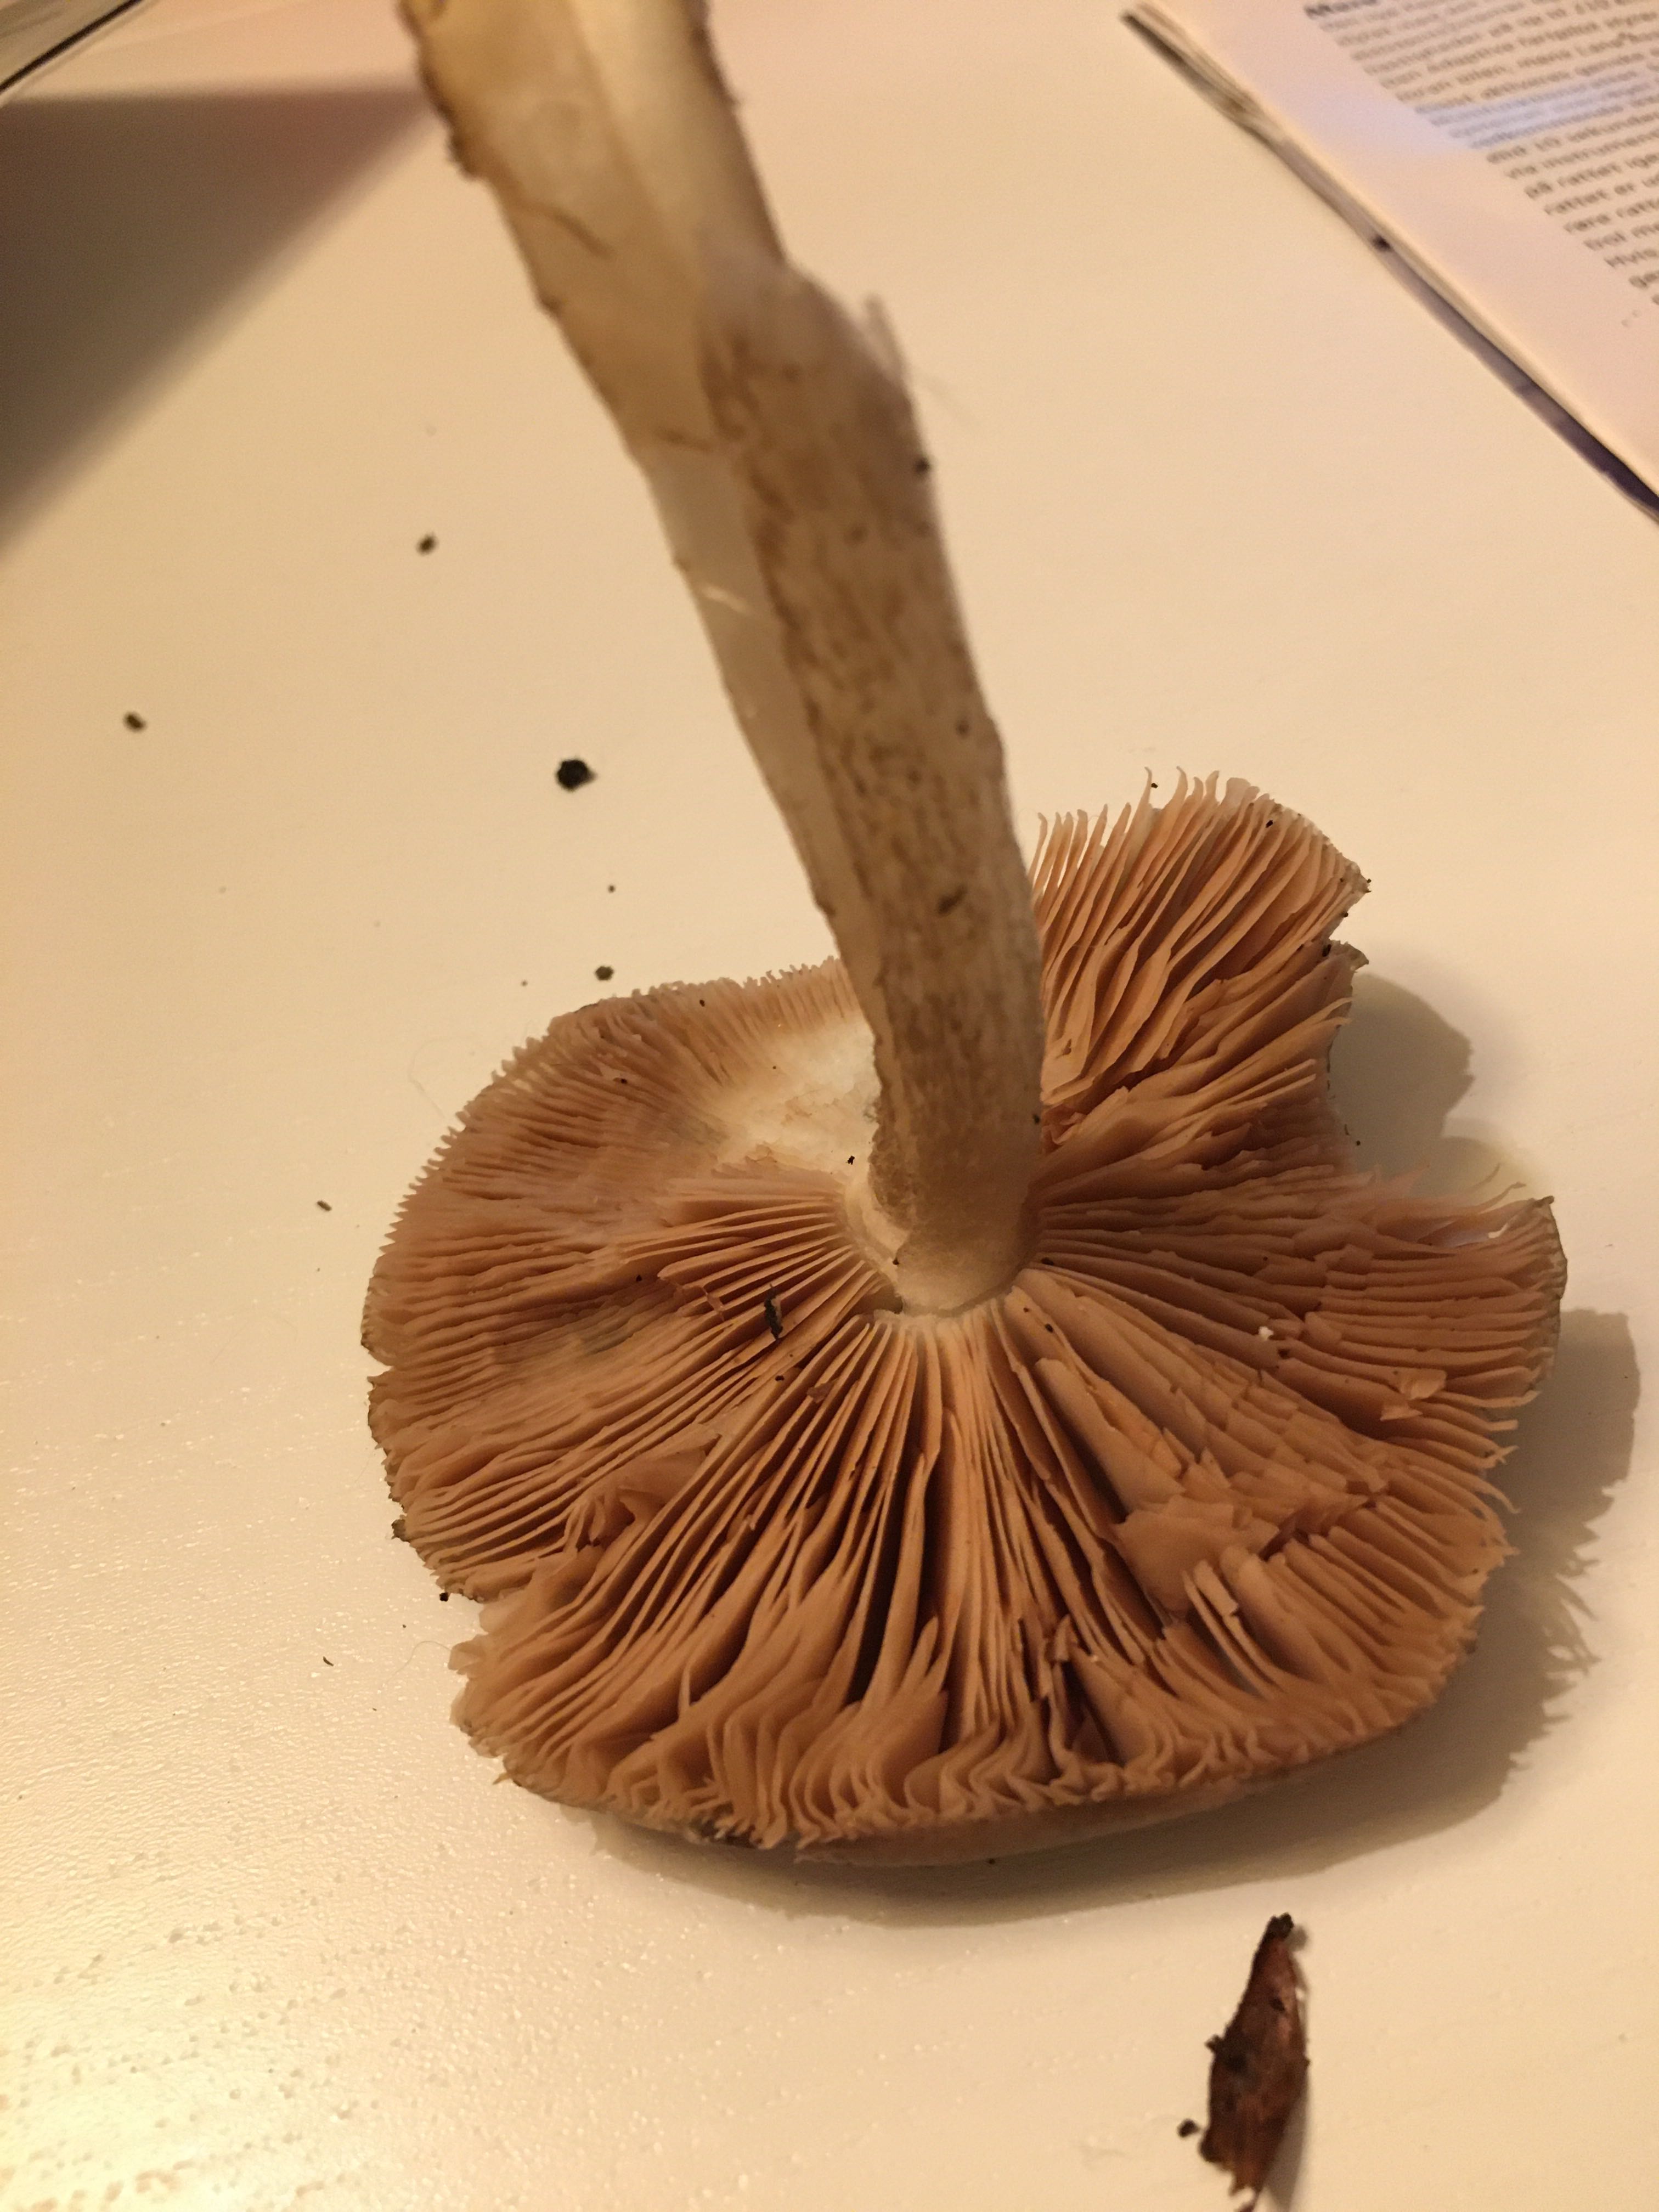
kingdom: Fungi
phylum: Basidiomycota
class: Agaricomycetes
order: Agaricales
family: Pluteaceae
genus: Pluteus
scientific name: Pluteus cervinus
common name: sodfarvet skærmhat
